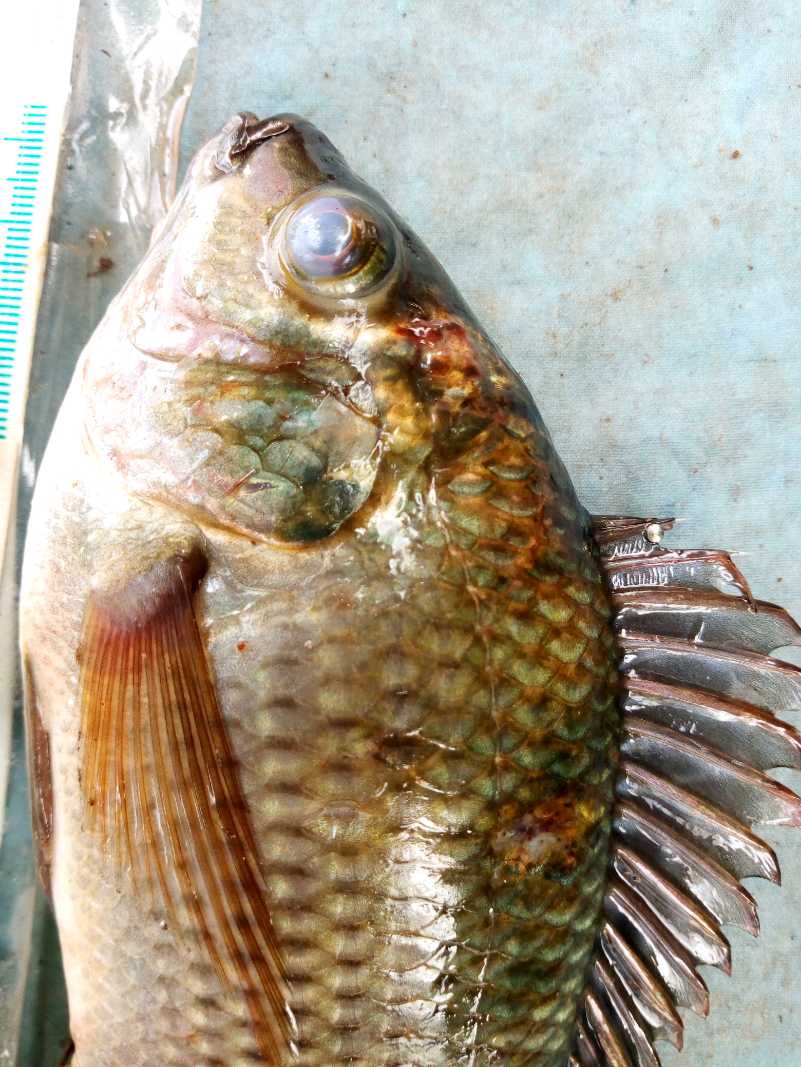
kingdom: Animalia
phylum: Chordata
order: Perciformes
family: Cichlidae
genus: Oreochromis
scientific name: Oreochromis niloticus
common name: Nile tilapia
